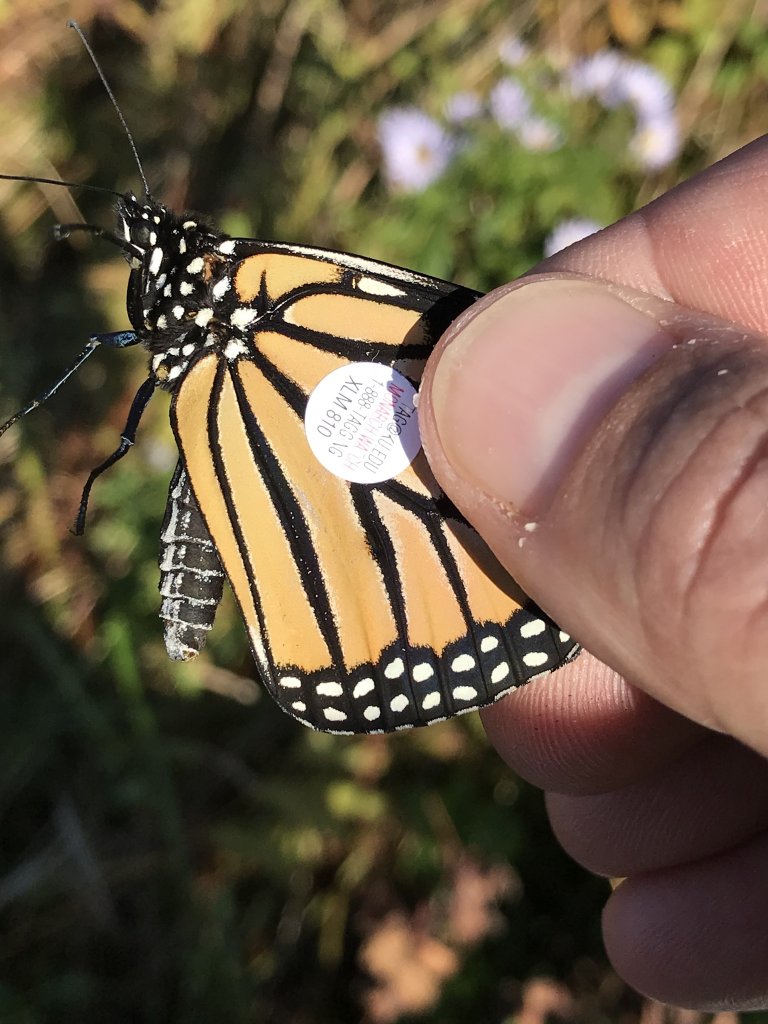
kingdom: Animalia
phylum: Arthropoda
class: Insecta
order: Lepidoptera
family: Nymphalidae
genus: Danaus
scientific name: Danaus plexippus
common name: Monarch
